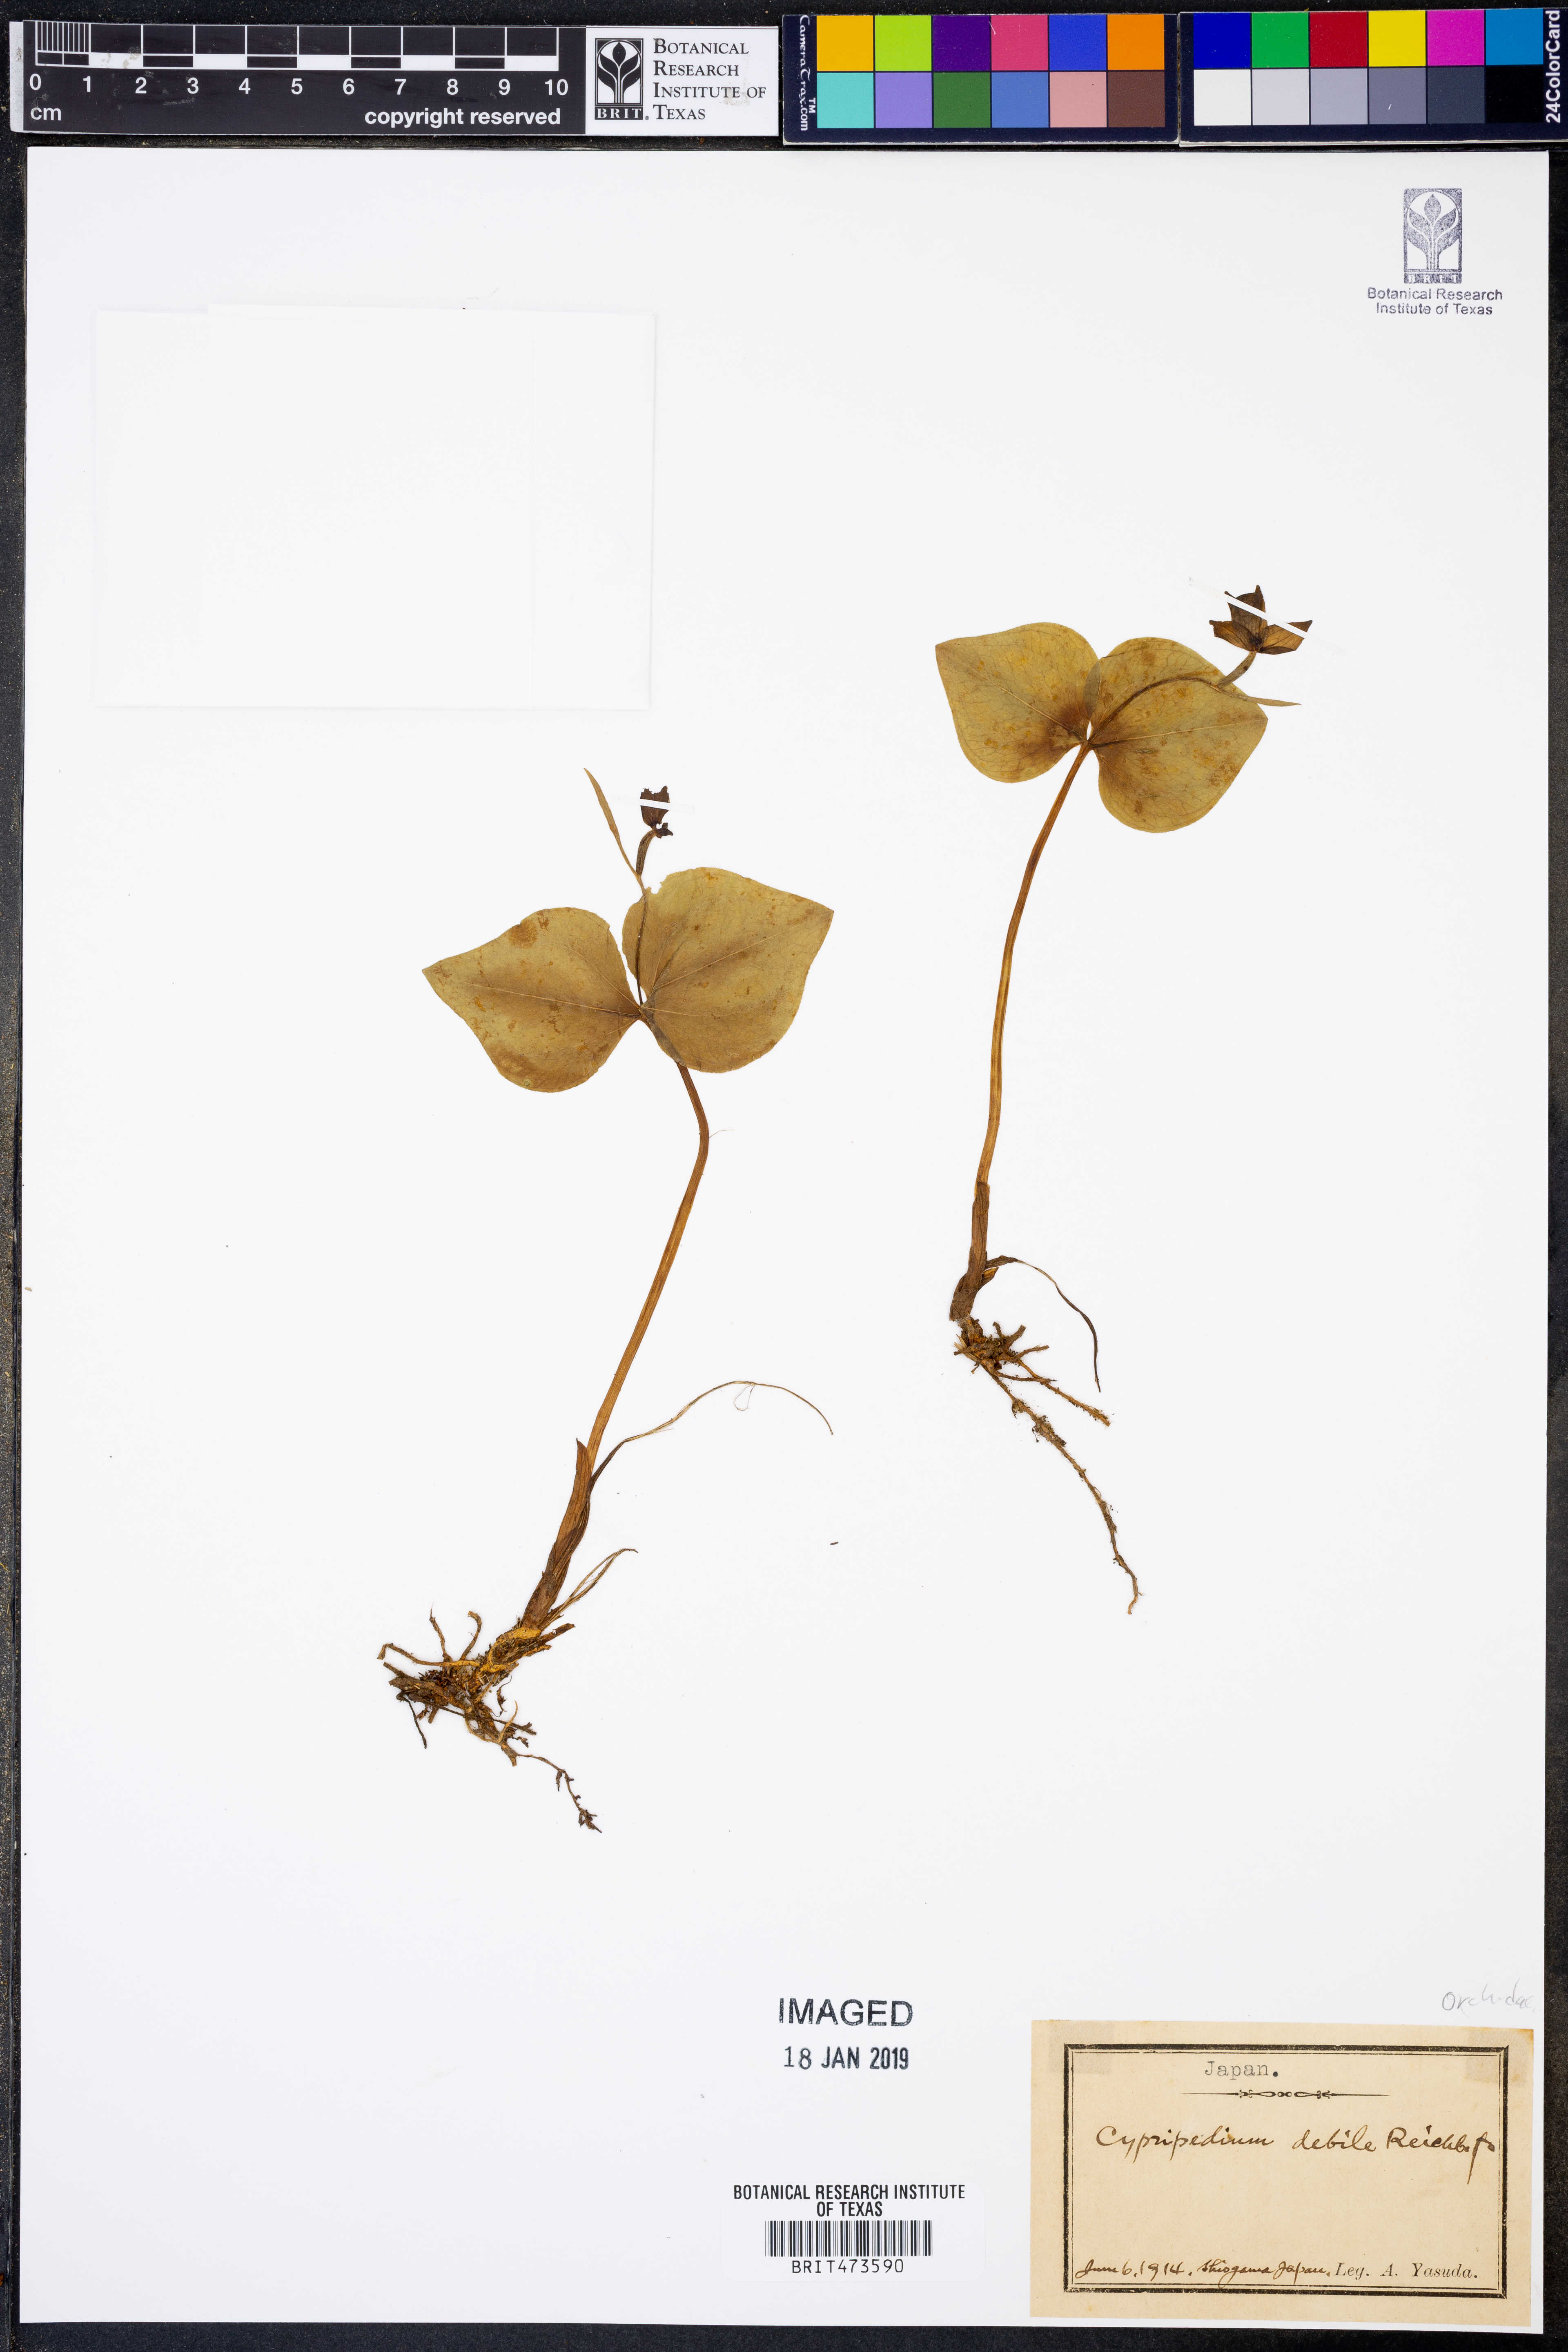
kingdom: Plantae
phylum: Tracheophyta
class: Liliopsida
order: Asparagales
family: Orchidaceae
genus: Cypripedium
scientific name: Cypripedium debile
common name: Frail cypripedium
